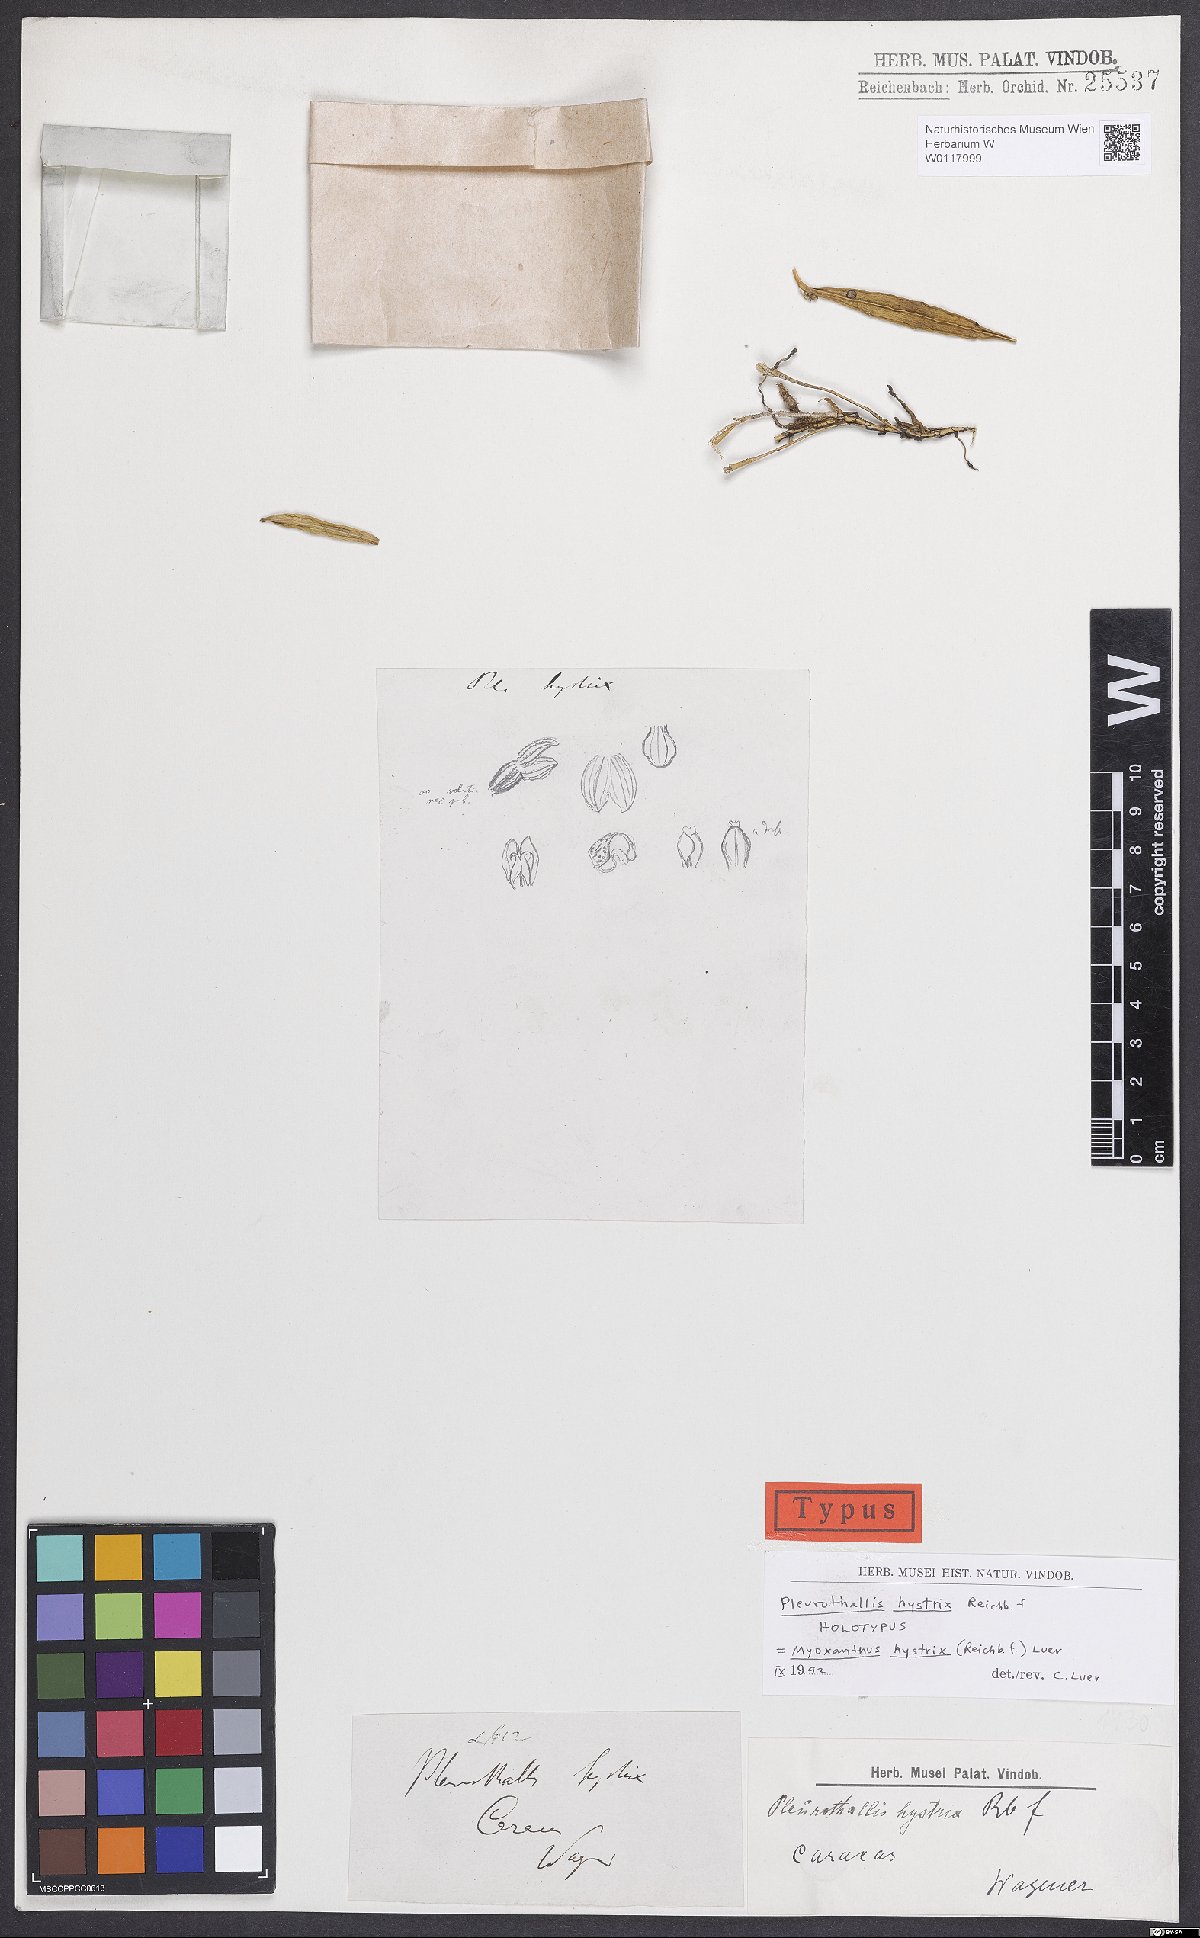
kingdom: Plantae
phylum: Tracheophyta
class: Liliopsida
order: Asparagales
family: Orchidaceae
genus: Myoxanthus
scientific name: Myoxanthus hystrix
